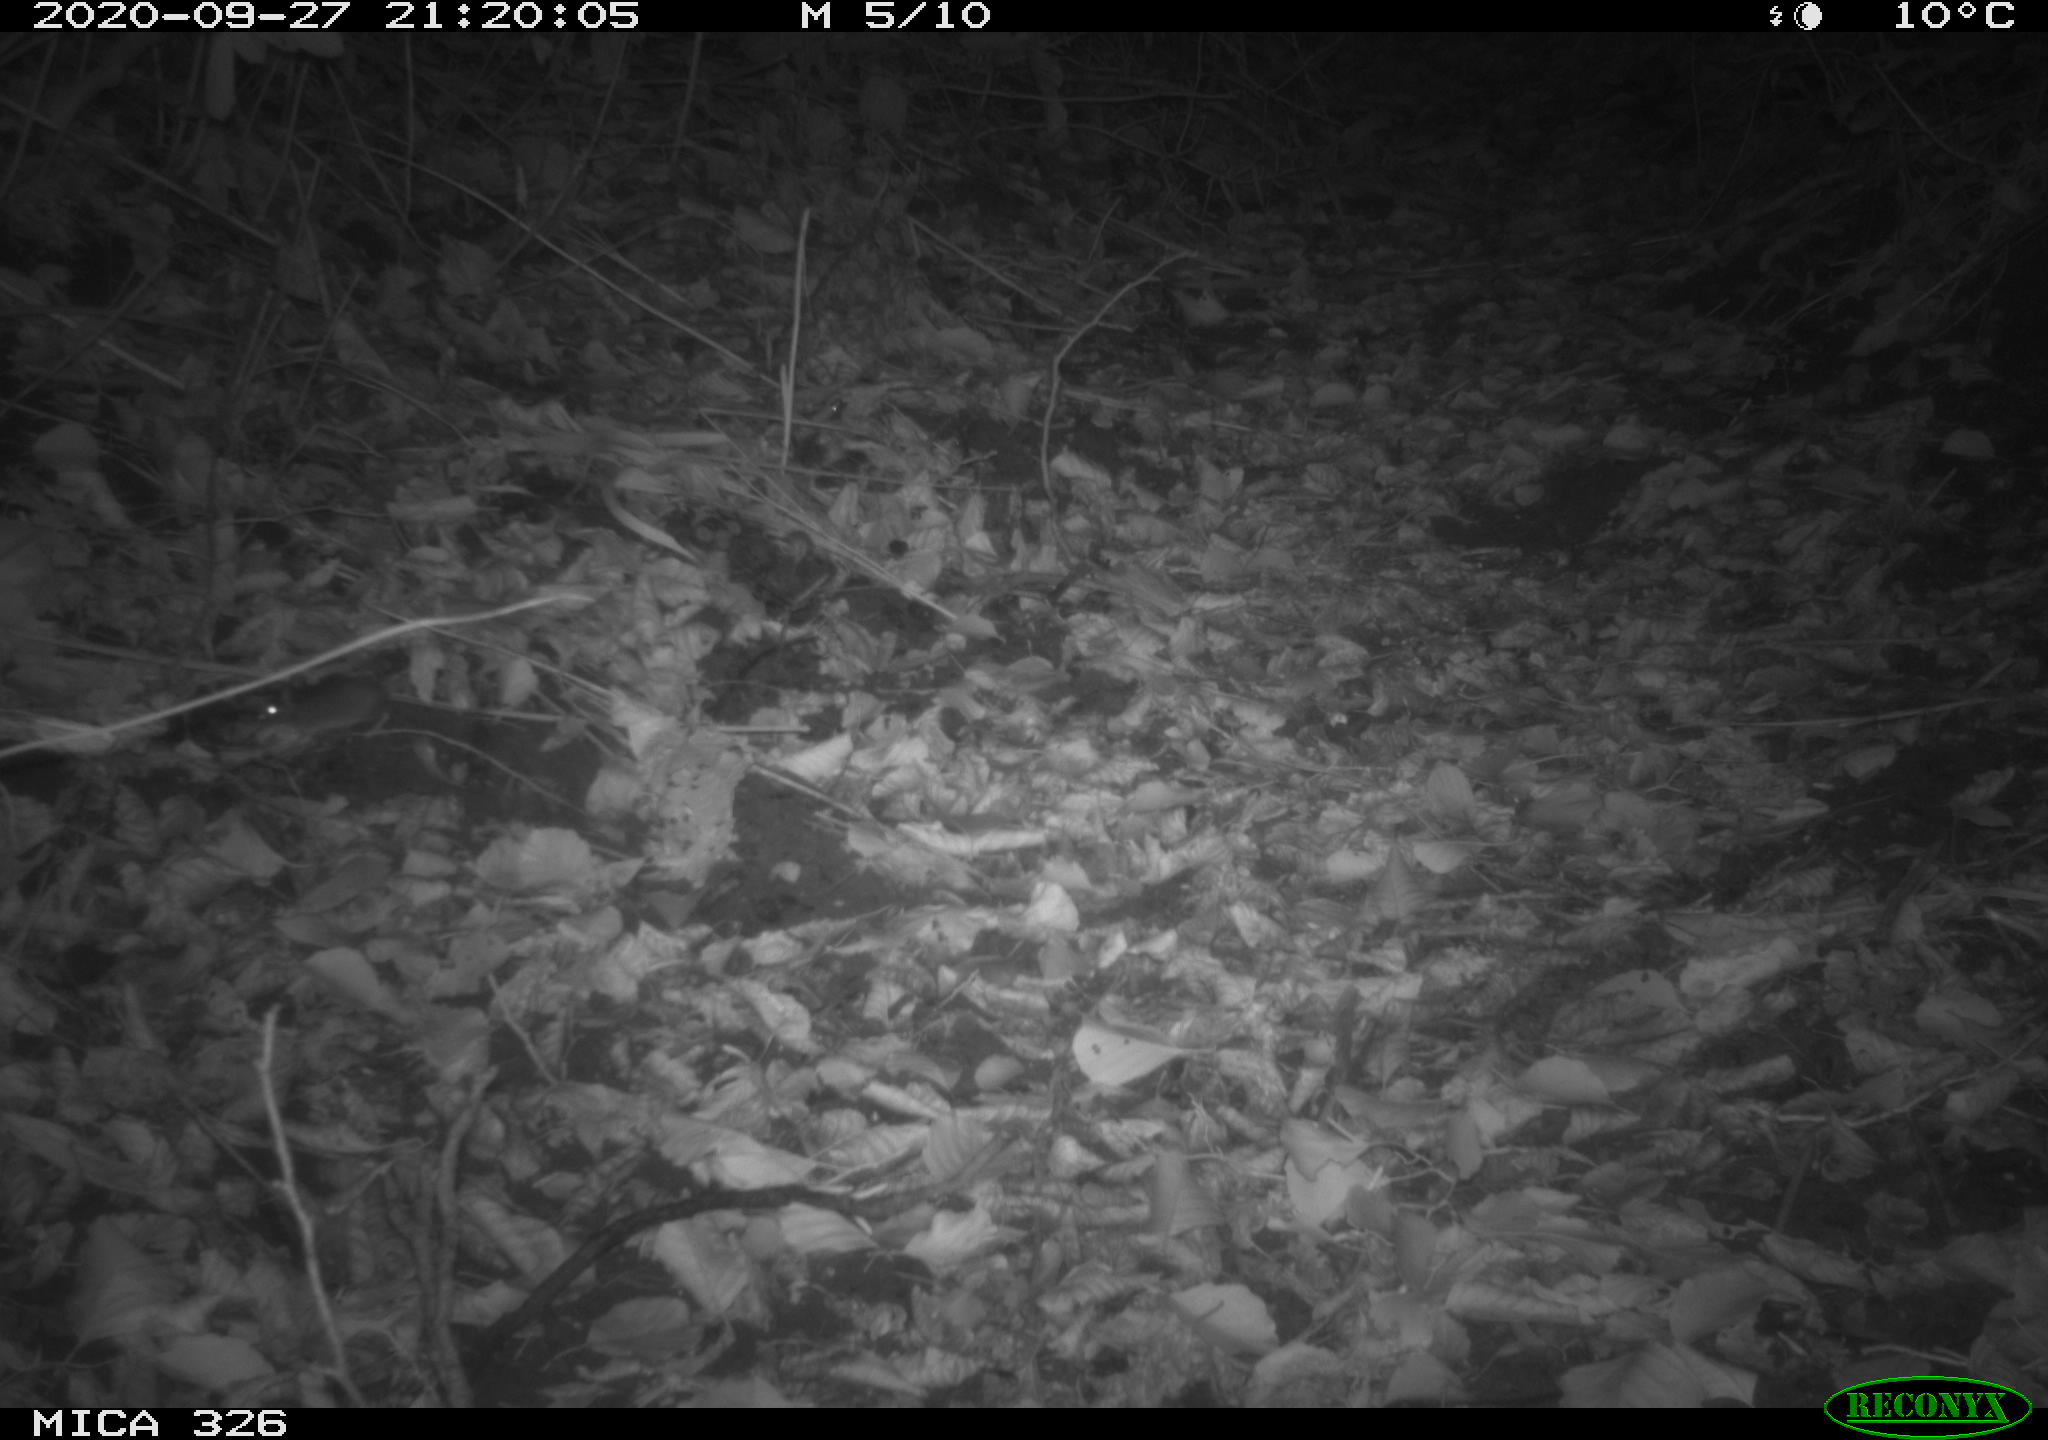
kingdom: Animalia
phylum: Chordata
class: Mammalia
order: Rodentia
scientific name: Rodentia
